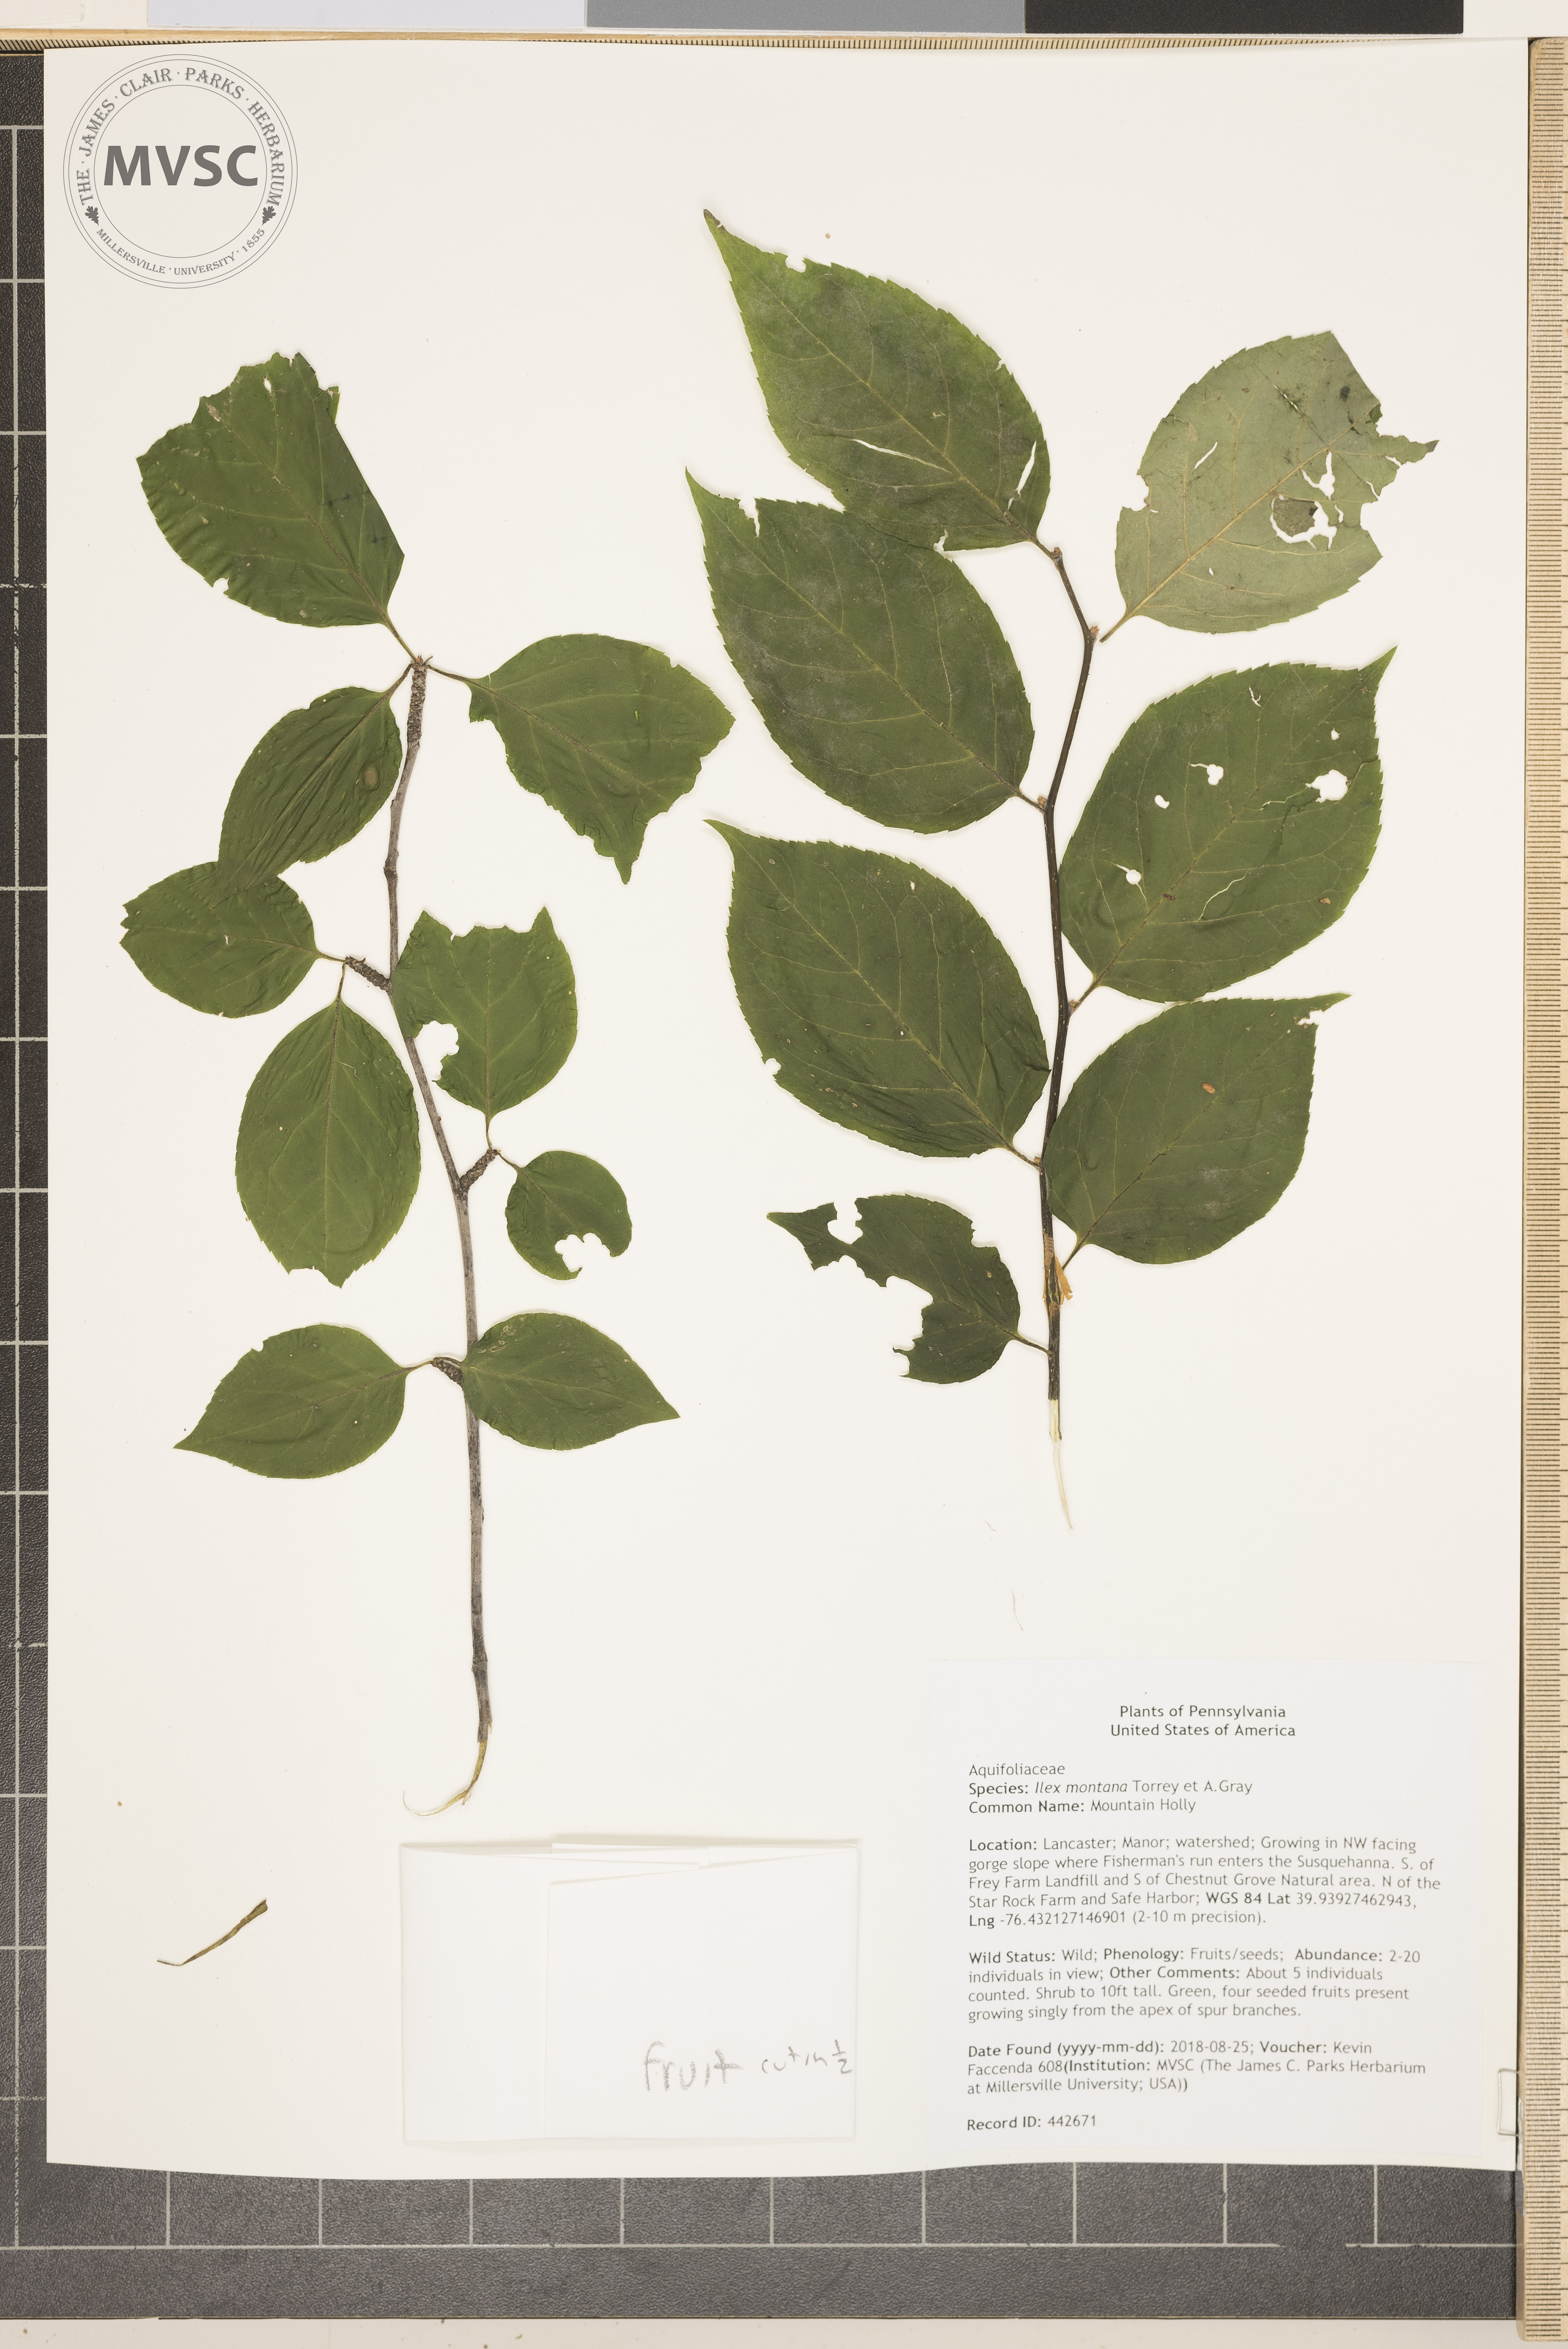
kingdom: Plantae
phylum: Tracheophyta
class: Magnoliopsida
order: Aquifoliales
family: Aquifoliaceae
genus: Ilex
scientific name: Ilex montana
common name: Mountain Holly
